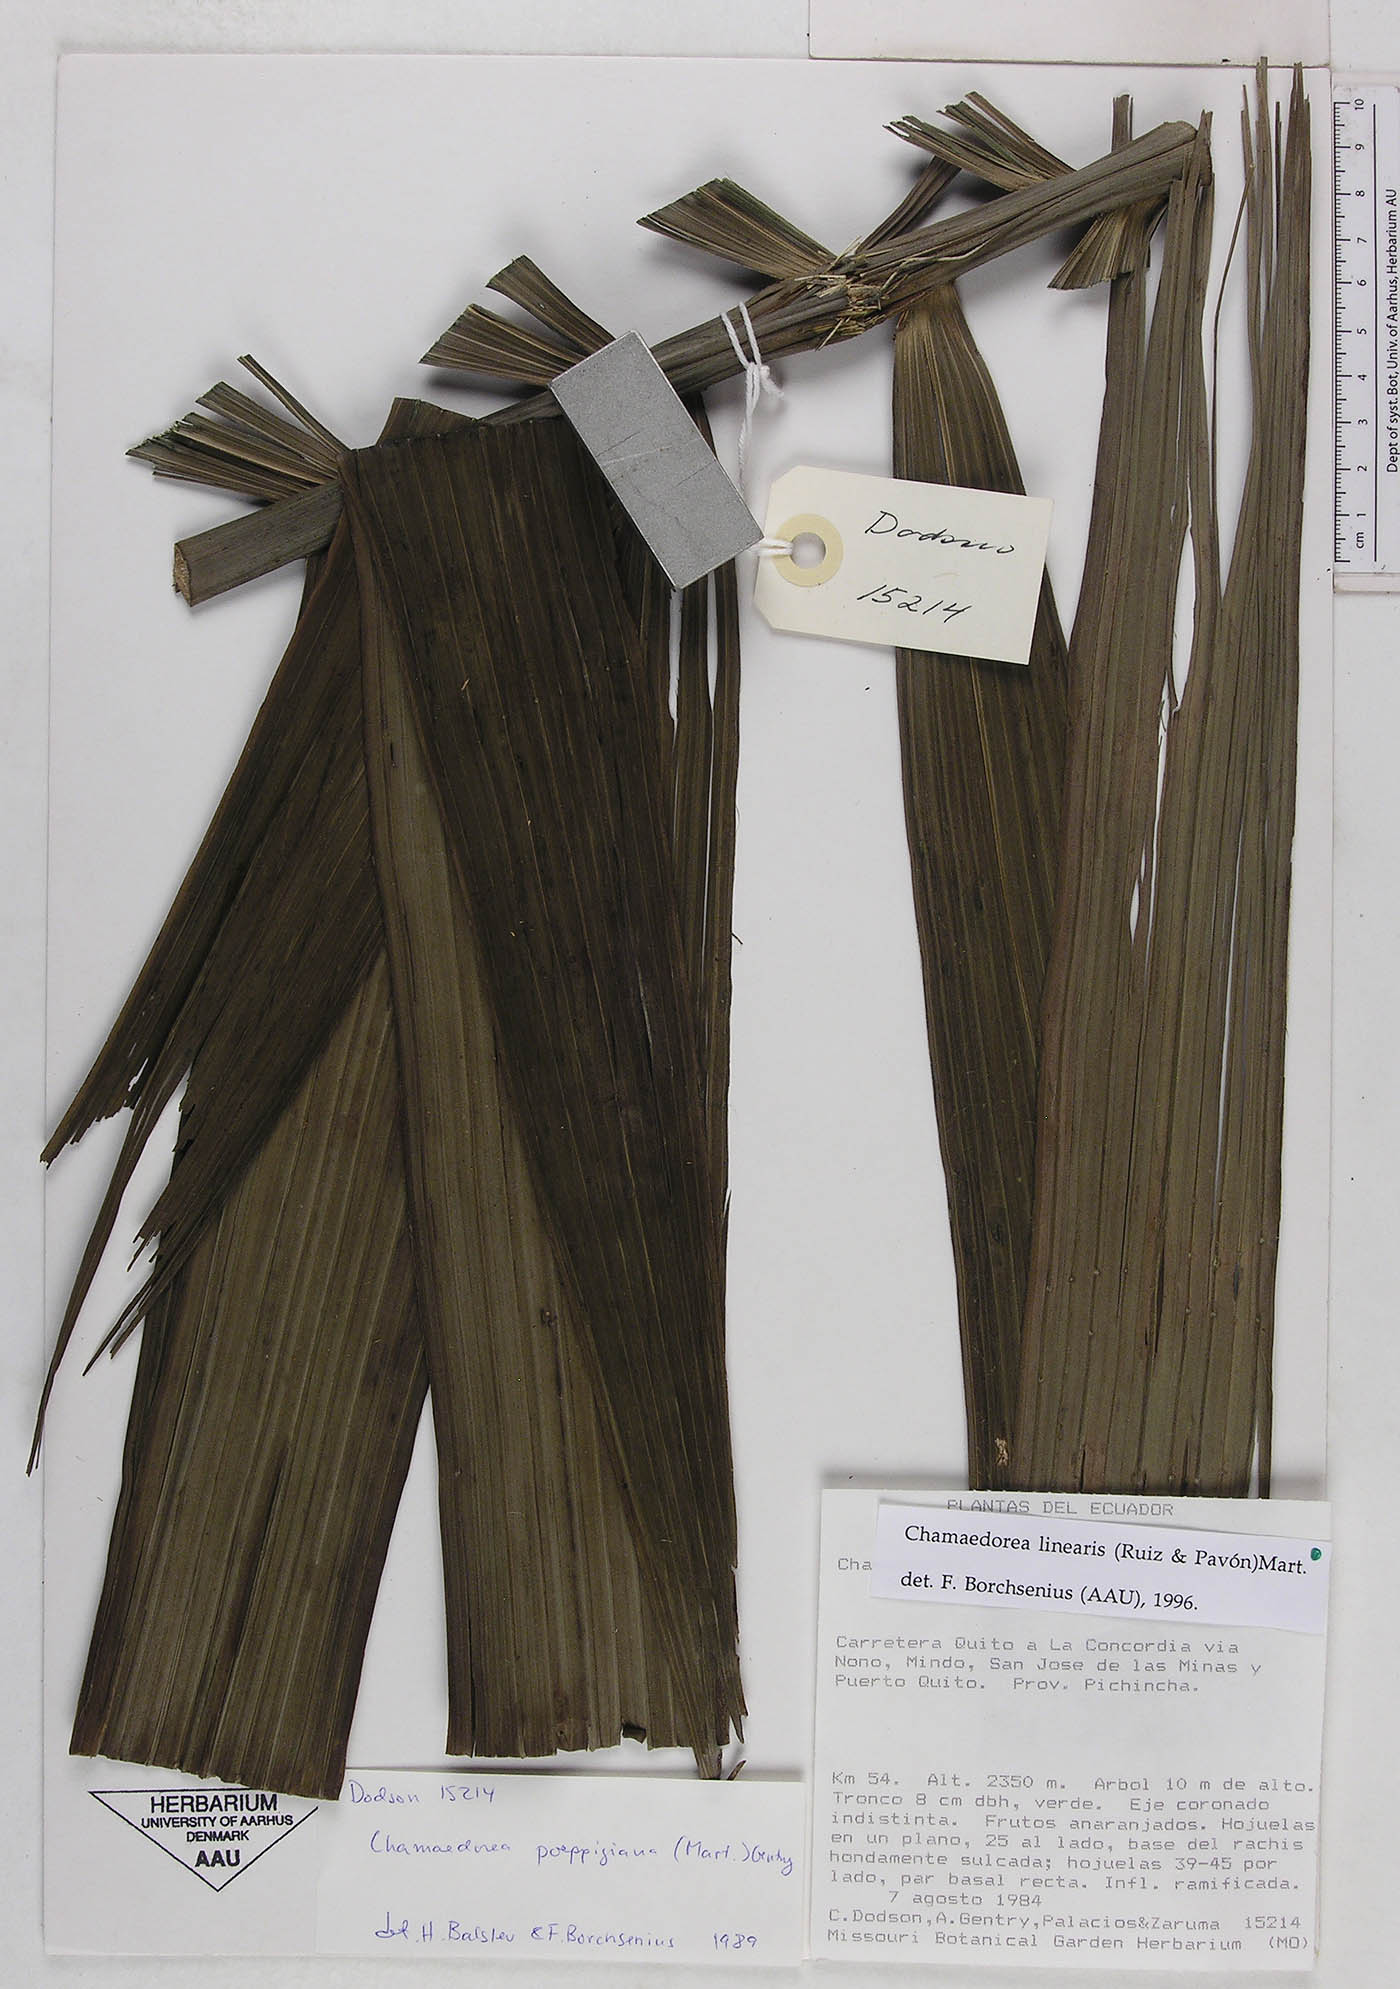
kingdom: Plantae
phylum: Tracheophyta
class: Liliopsida
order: Arecales
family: Arecaceae
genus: Chamaedorea
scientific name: Chamaedorea linearis
